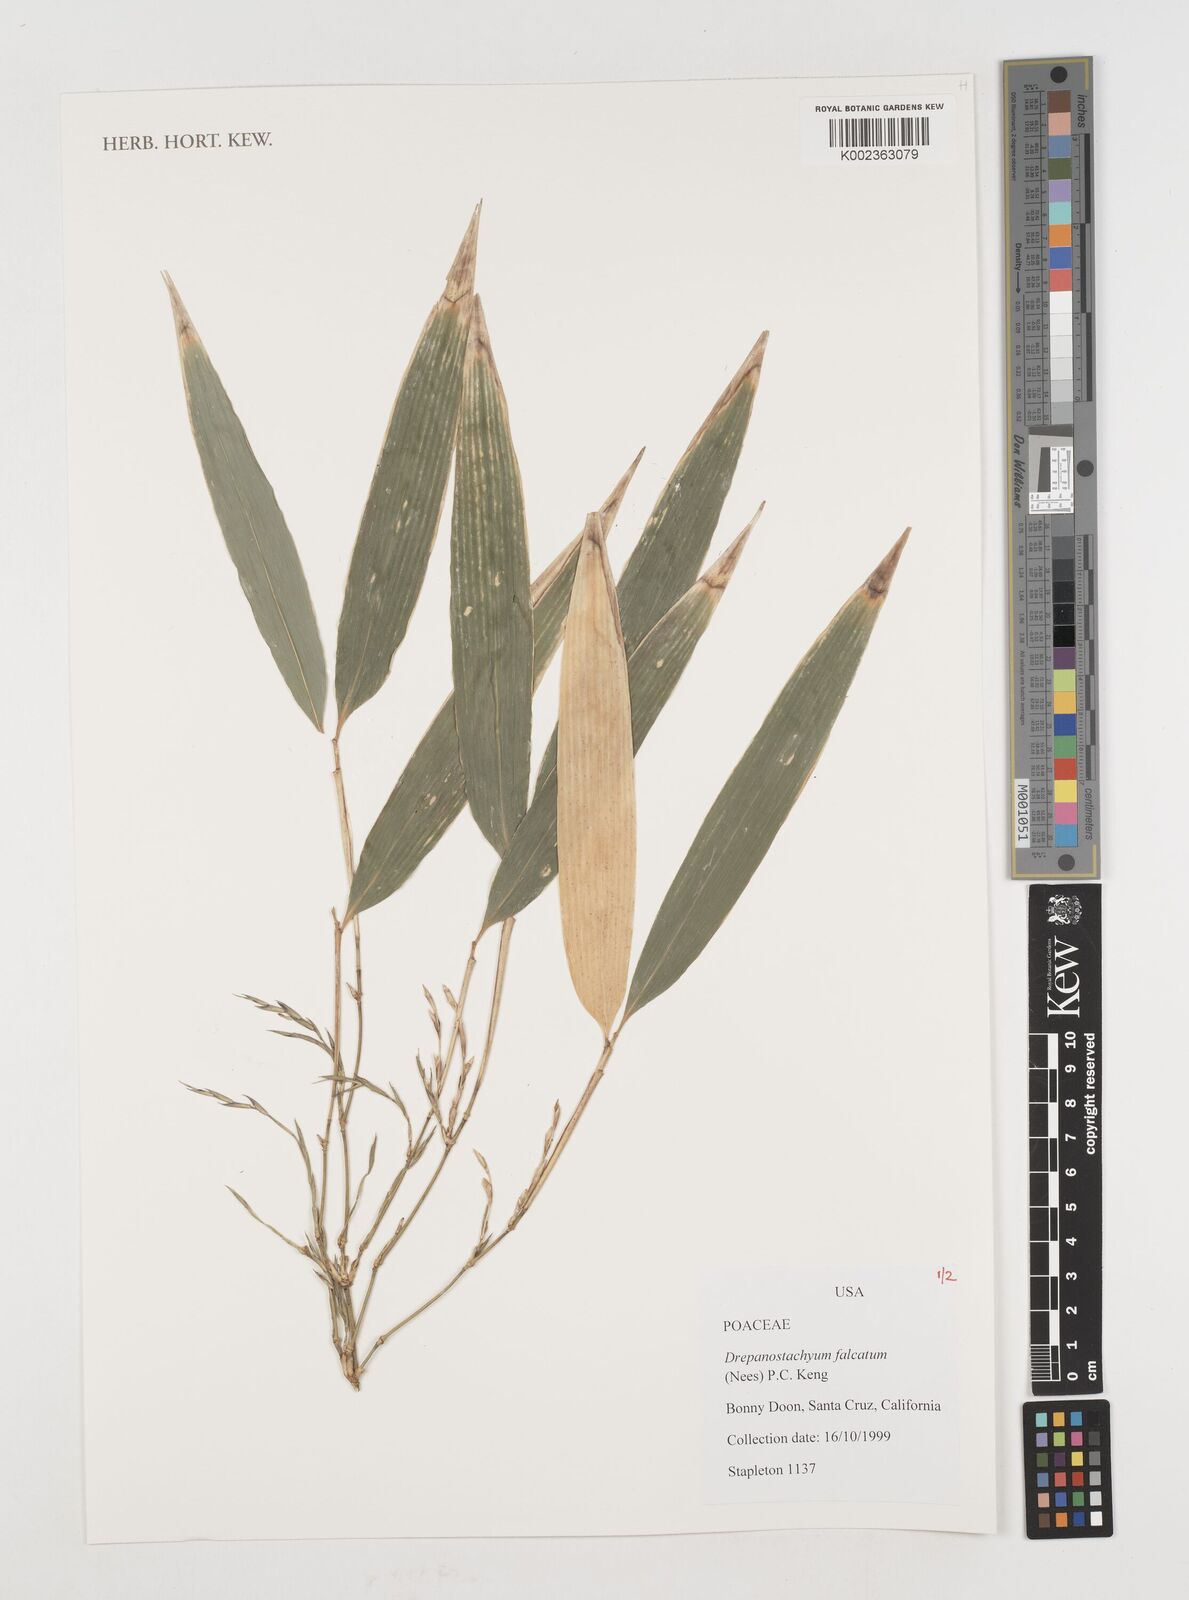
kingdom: Plantae
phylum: Tracheophyta
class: Liliopsida
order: Poales
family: Poaceae
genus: Drepanostachyum
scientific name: Drepanostachyum falcatum
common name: Himalayan bamboo
